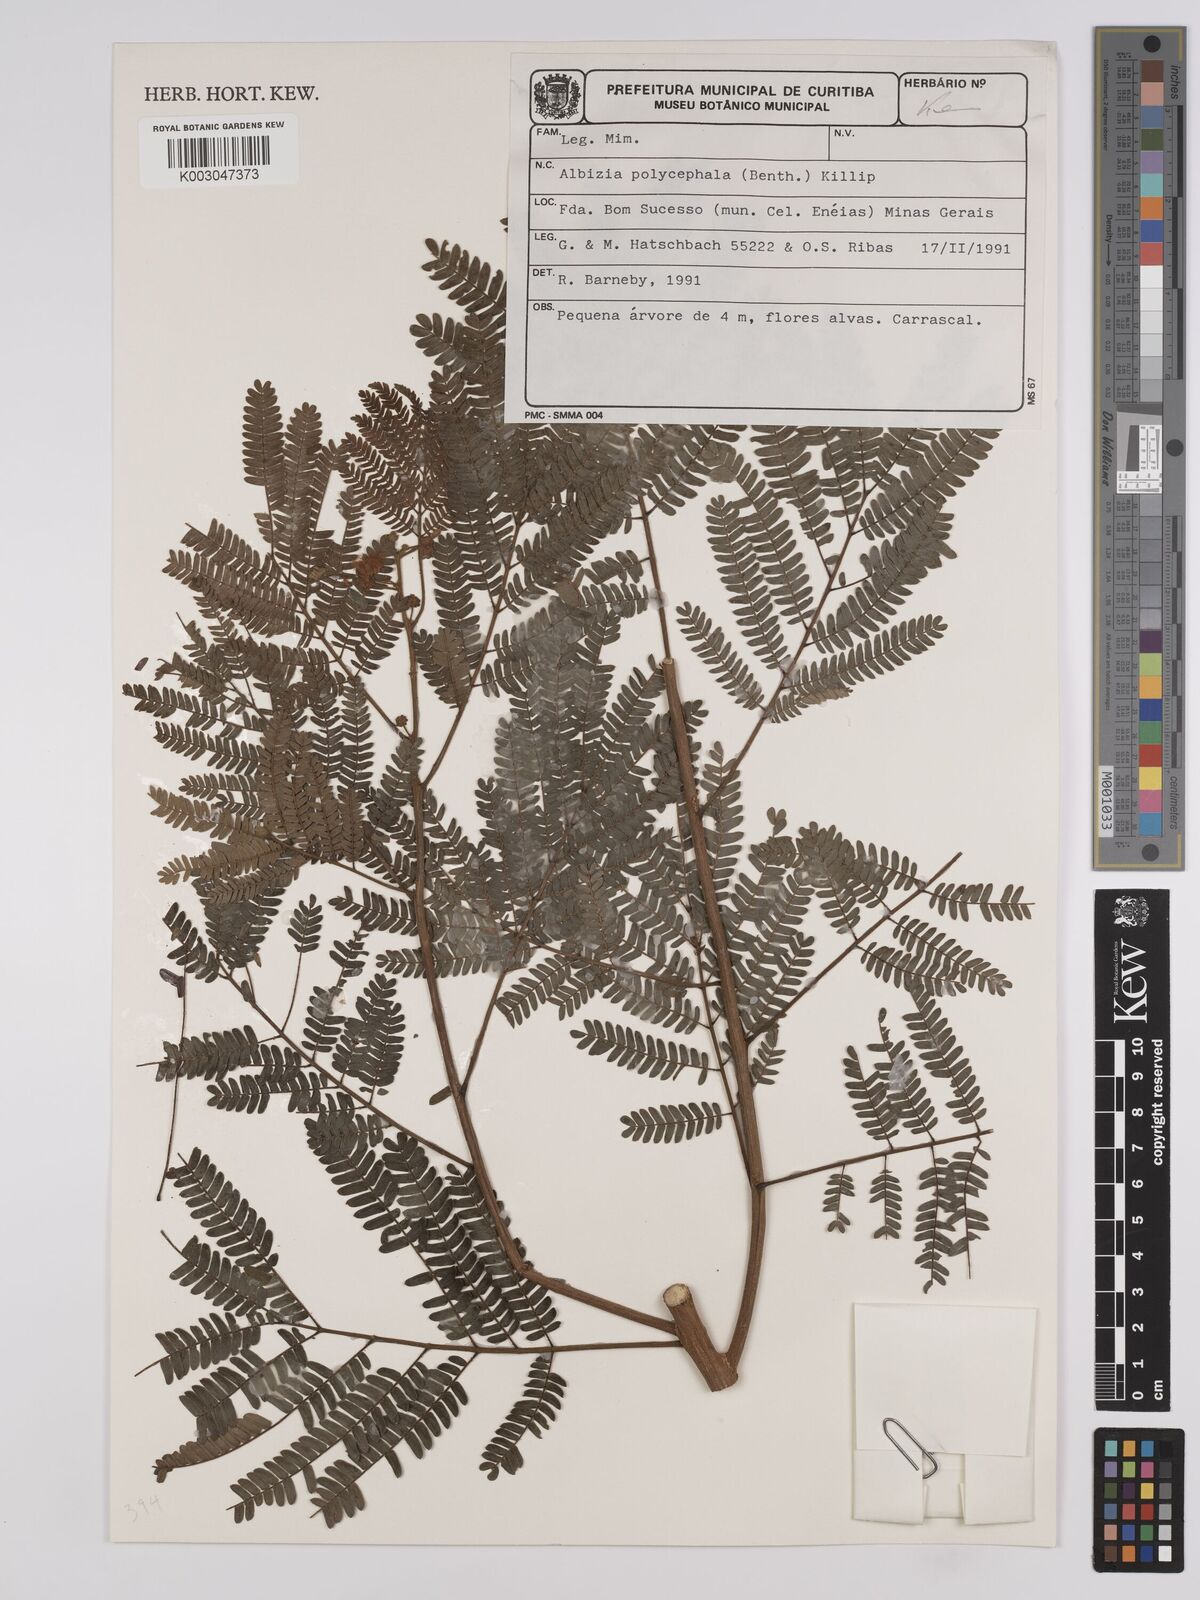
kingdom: Plantae
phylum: Tracheophyta
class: Magnoliopsida
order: Fabales
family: Fabaceae
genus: Albizia
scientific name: Albizia polycephala
